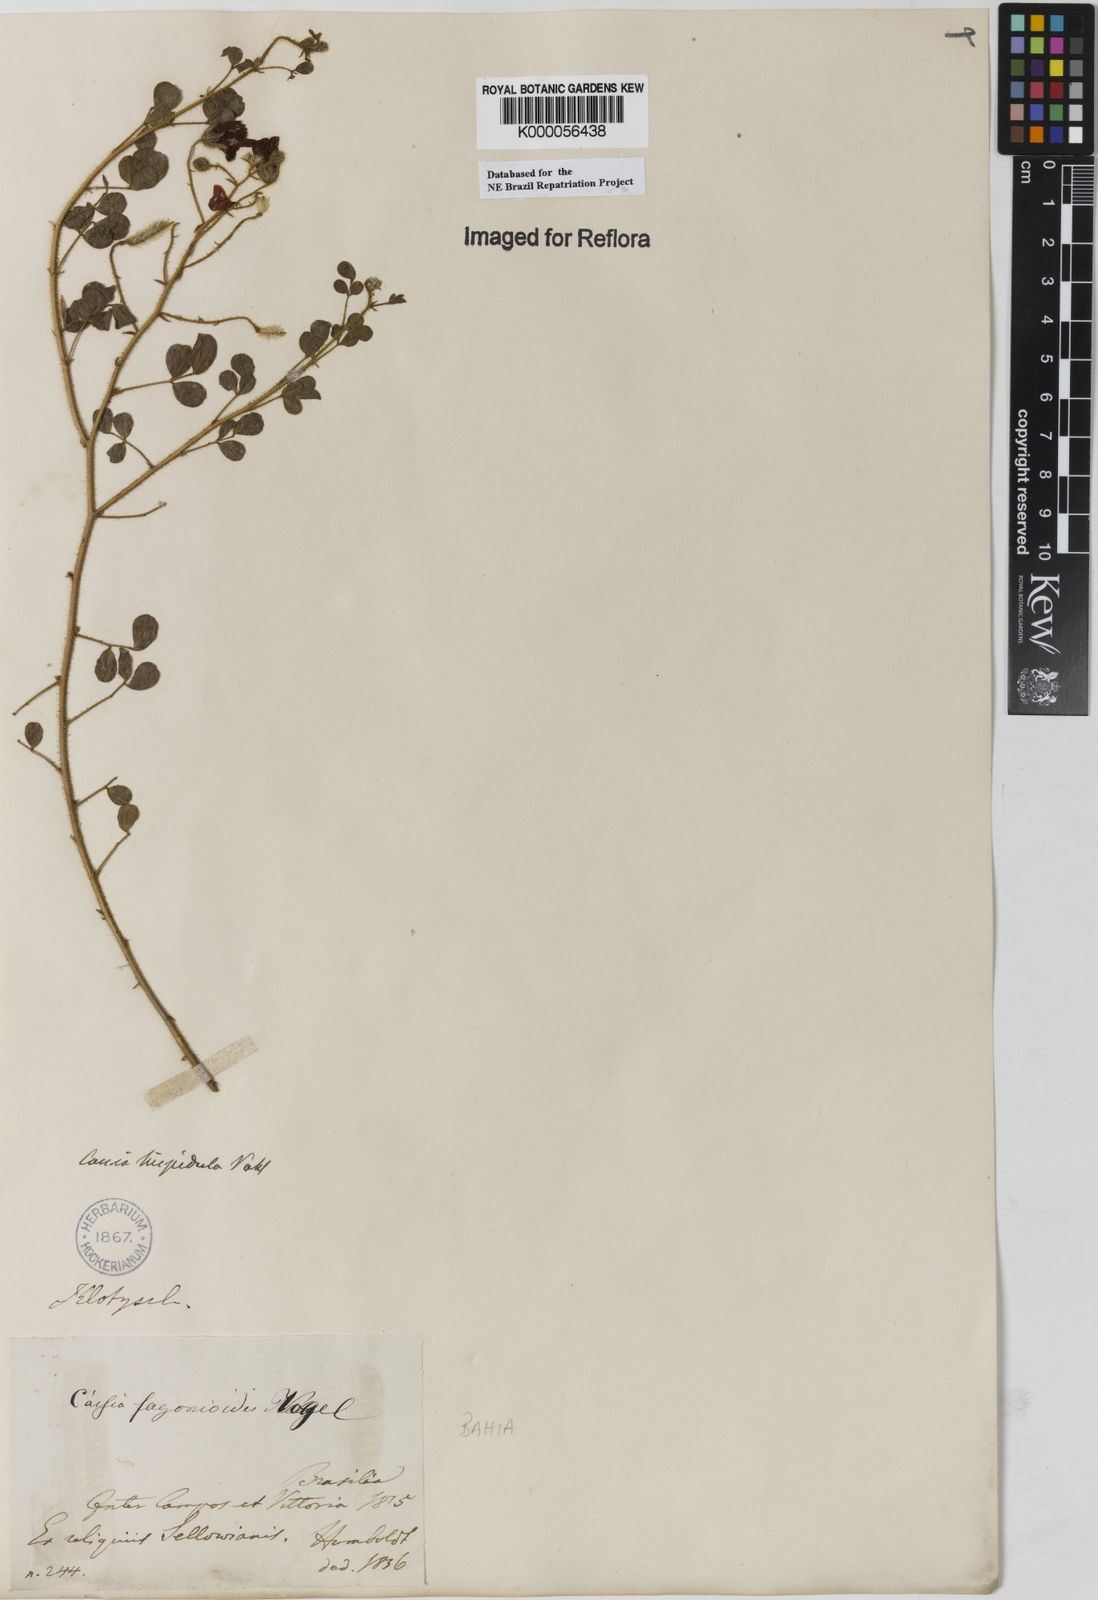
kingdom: Plantae
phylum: Tracheophyta
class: Magnoliopsida
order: Fabales
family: Fabaceae
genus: Chamaecrista
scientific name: Chamaecrista fagonioides
